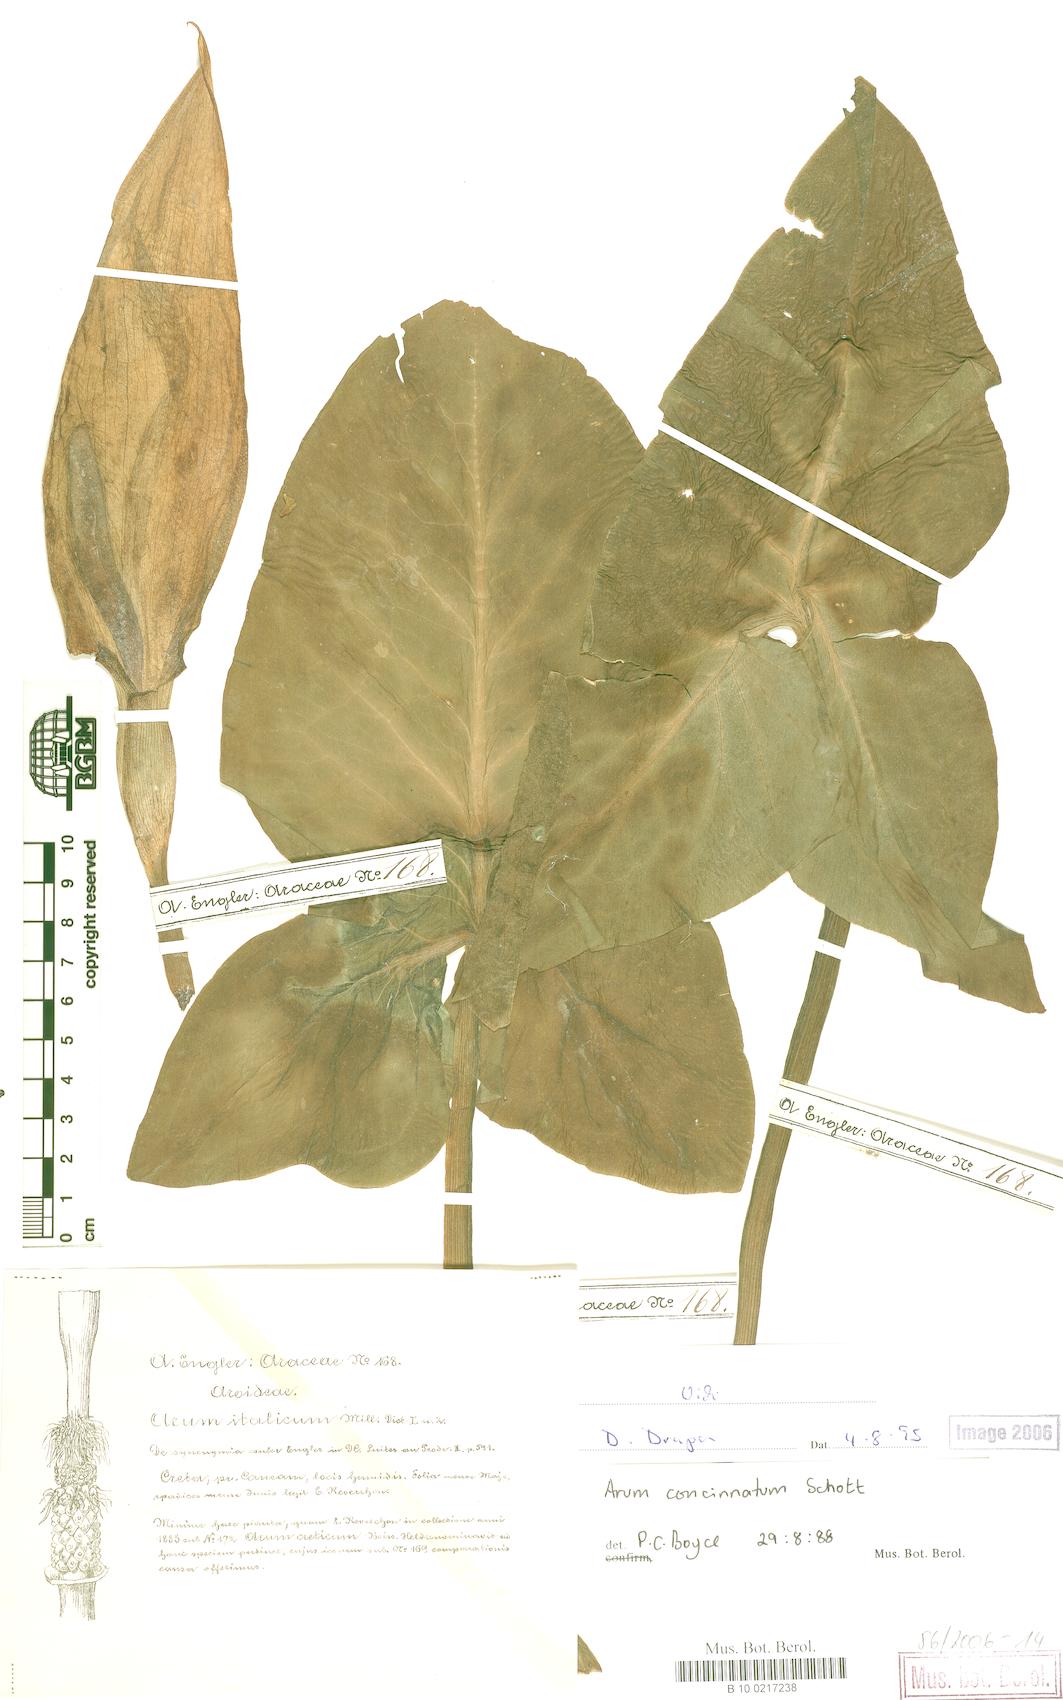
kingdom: Plantae
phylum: Tracheophyta
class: Liliopsida
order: Alismatales
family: Araceae
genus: Arum
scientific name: Arum concinnatum
